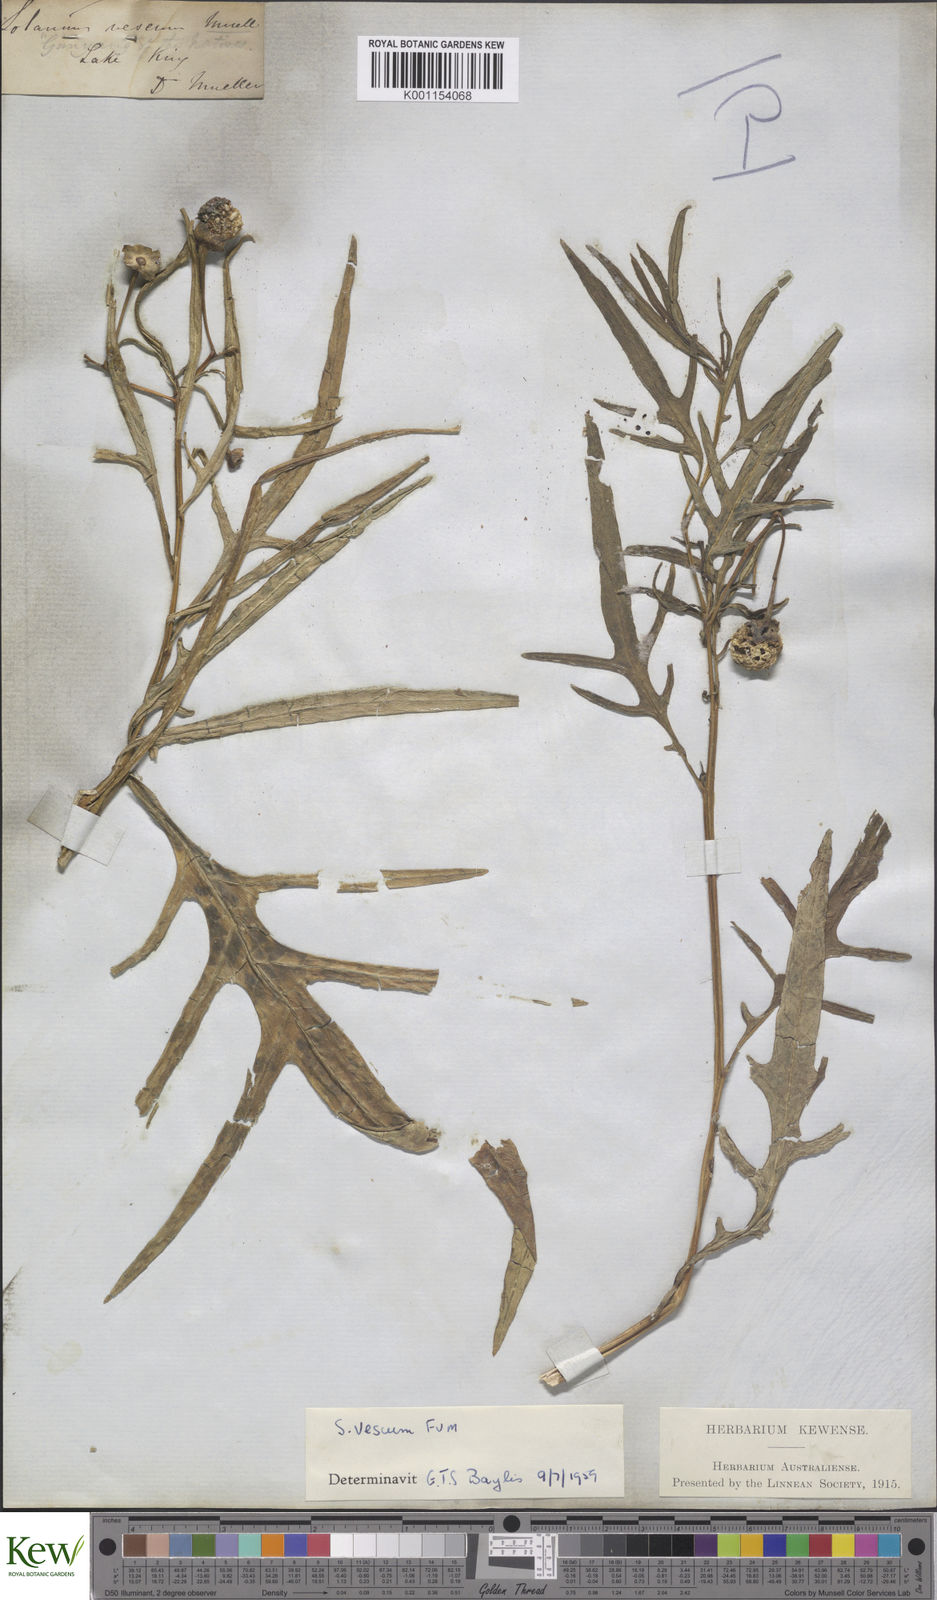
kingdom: Plantae
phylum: Tracheophyta
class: Magnoliopsida
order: Solanales
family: Solanaceae
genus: Solanum
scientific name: Solanum vescum
